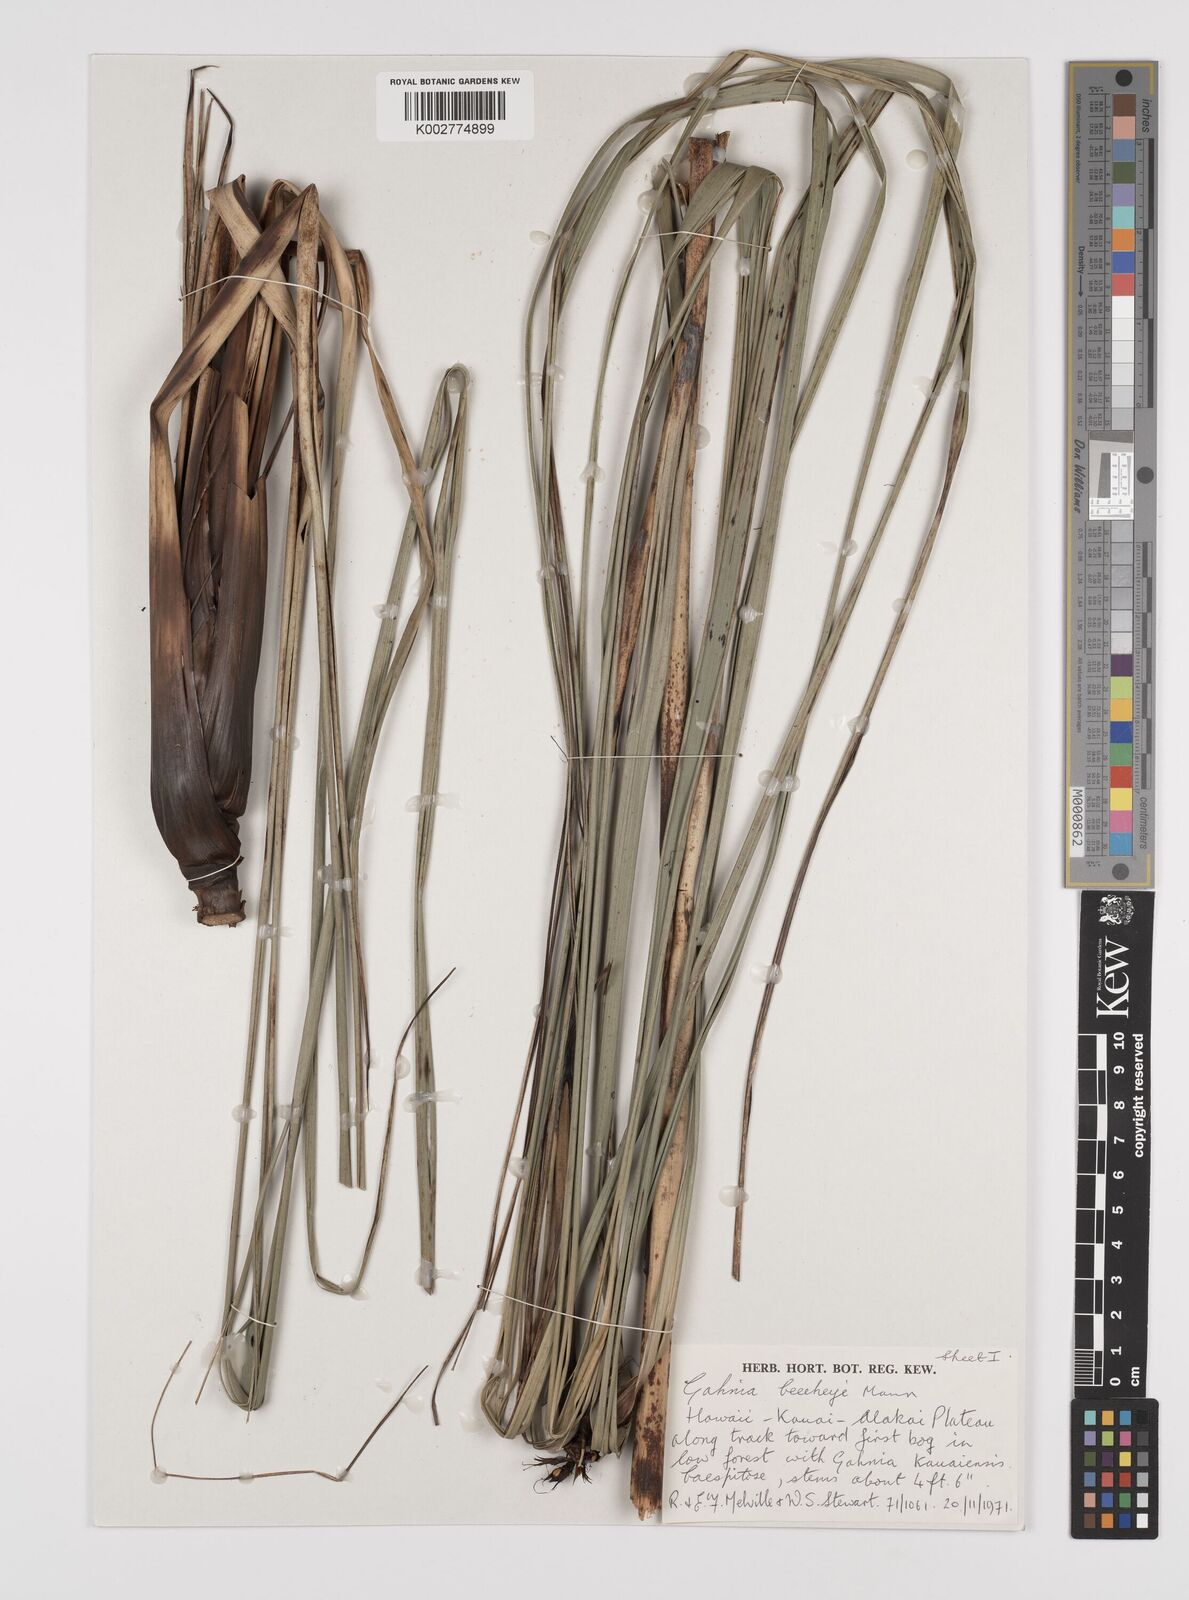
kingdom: Plantae
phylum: Tracheophyta
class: Liliopsida
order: Poales
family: Cyperaceae
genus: Gahnia
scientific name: Gahnia beecheyi
